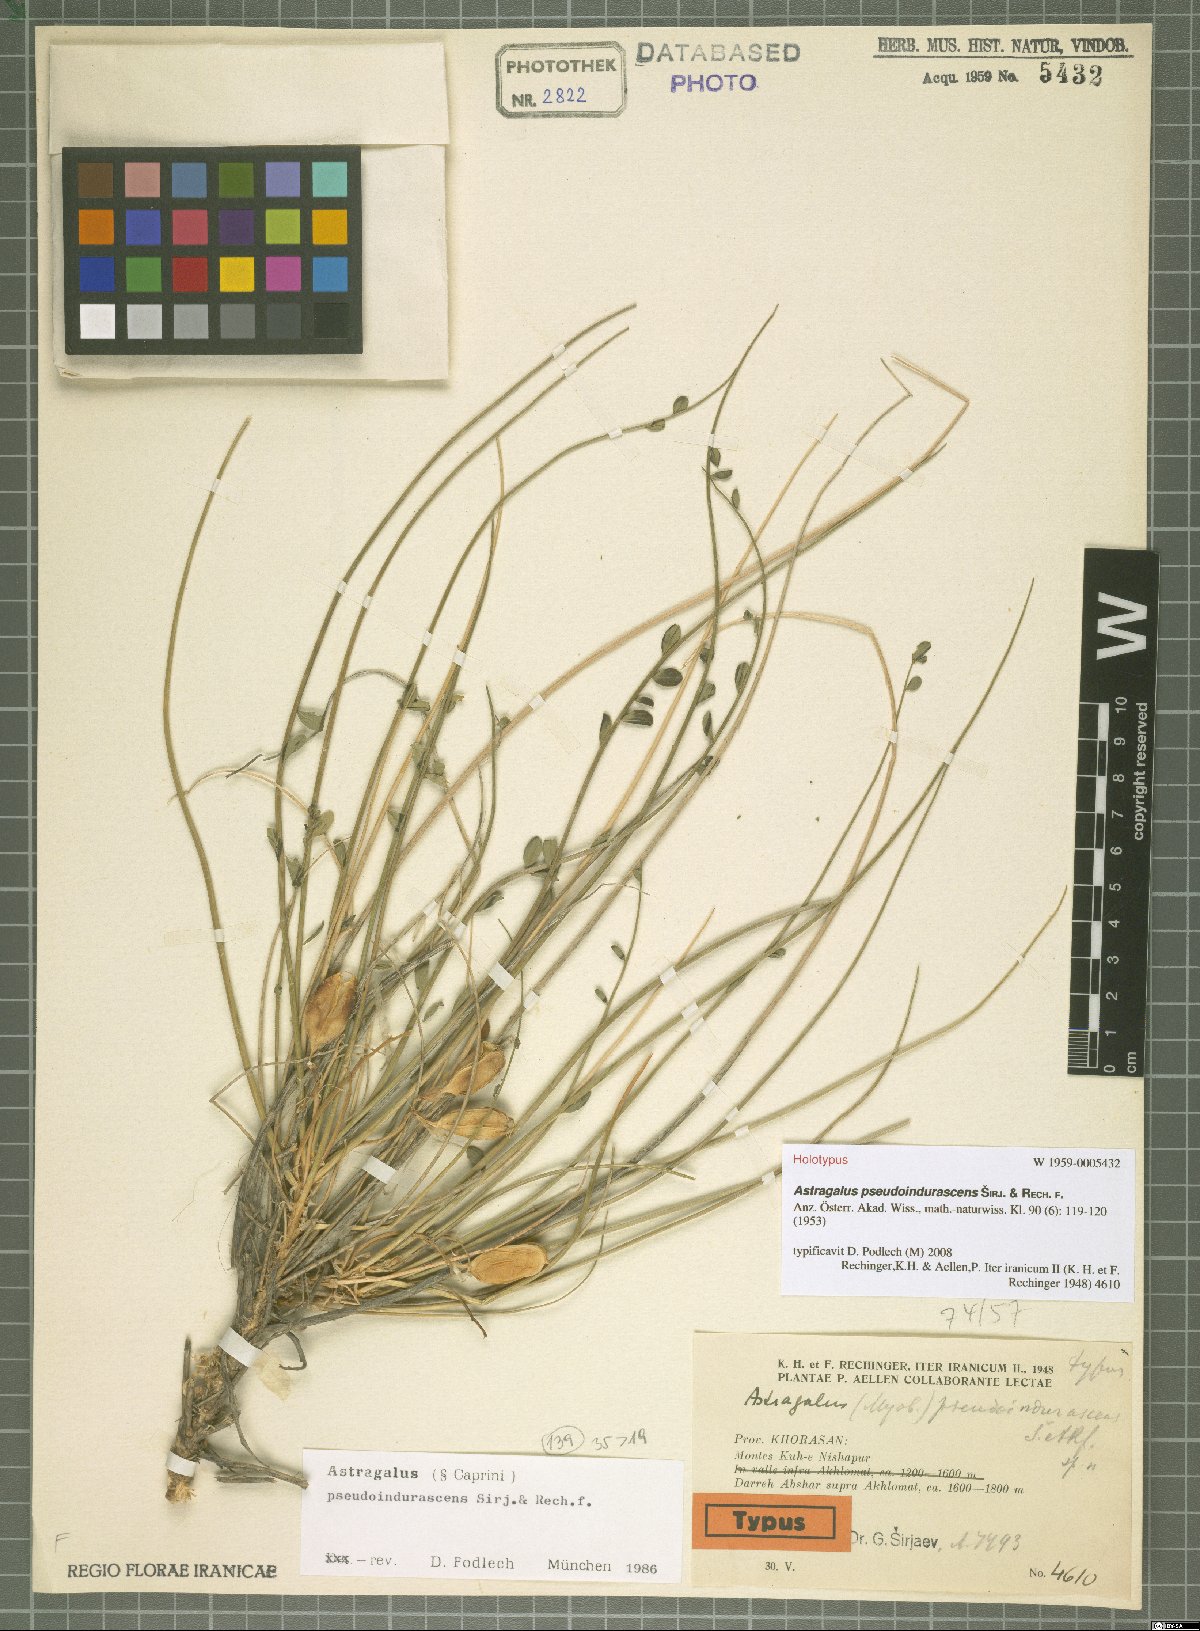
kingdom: Plantae
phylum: Tracheophyta
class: Magnoliopsida
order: Fabales
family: Fabaceae
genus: Astragalus
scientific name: Astragalus pseudoindurascens
